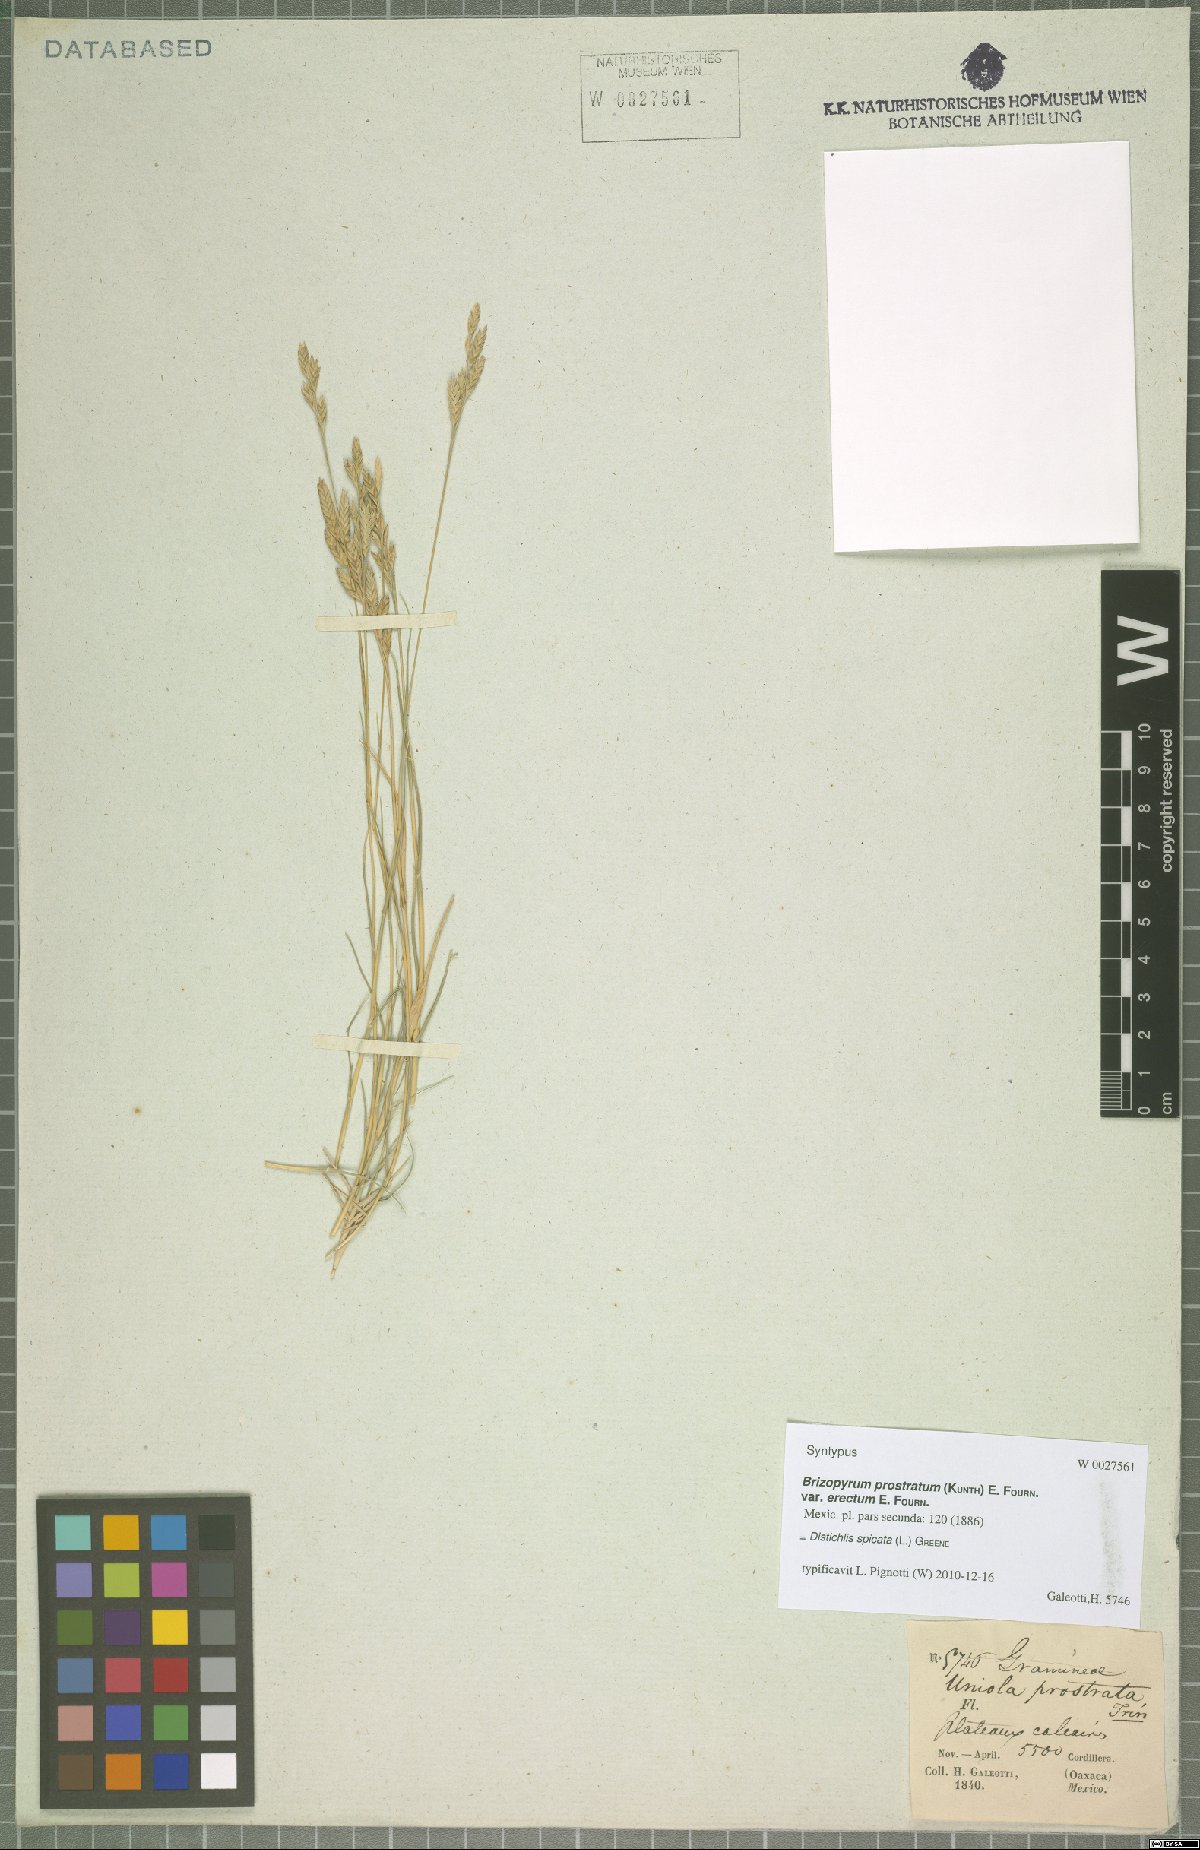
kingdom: Plantae
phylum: Tracheophyta
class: Liliopsida
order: Poales
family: Poaceae
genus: Distichlis
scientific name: Distichlis spicata
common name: Saltgrass
